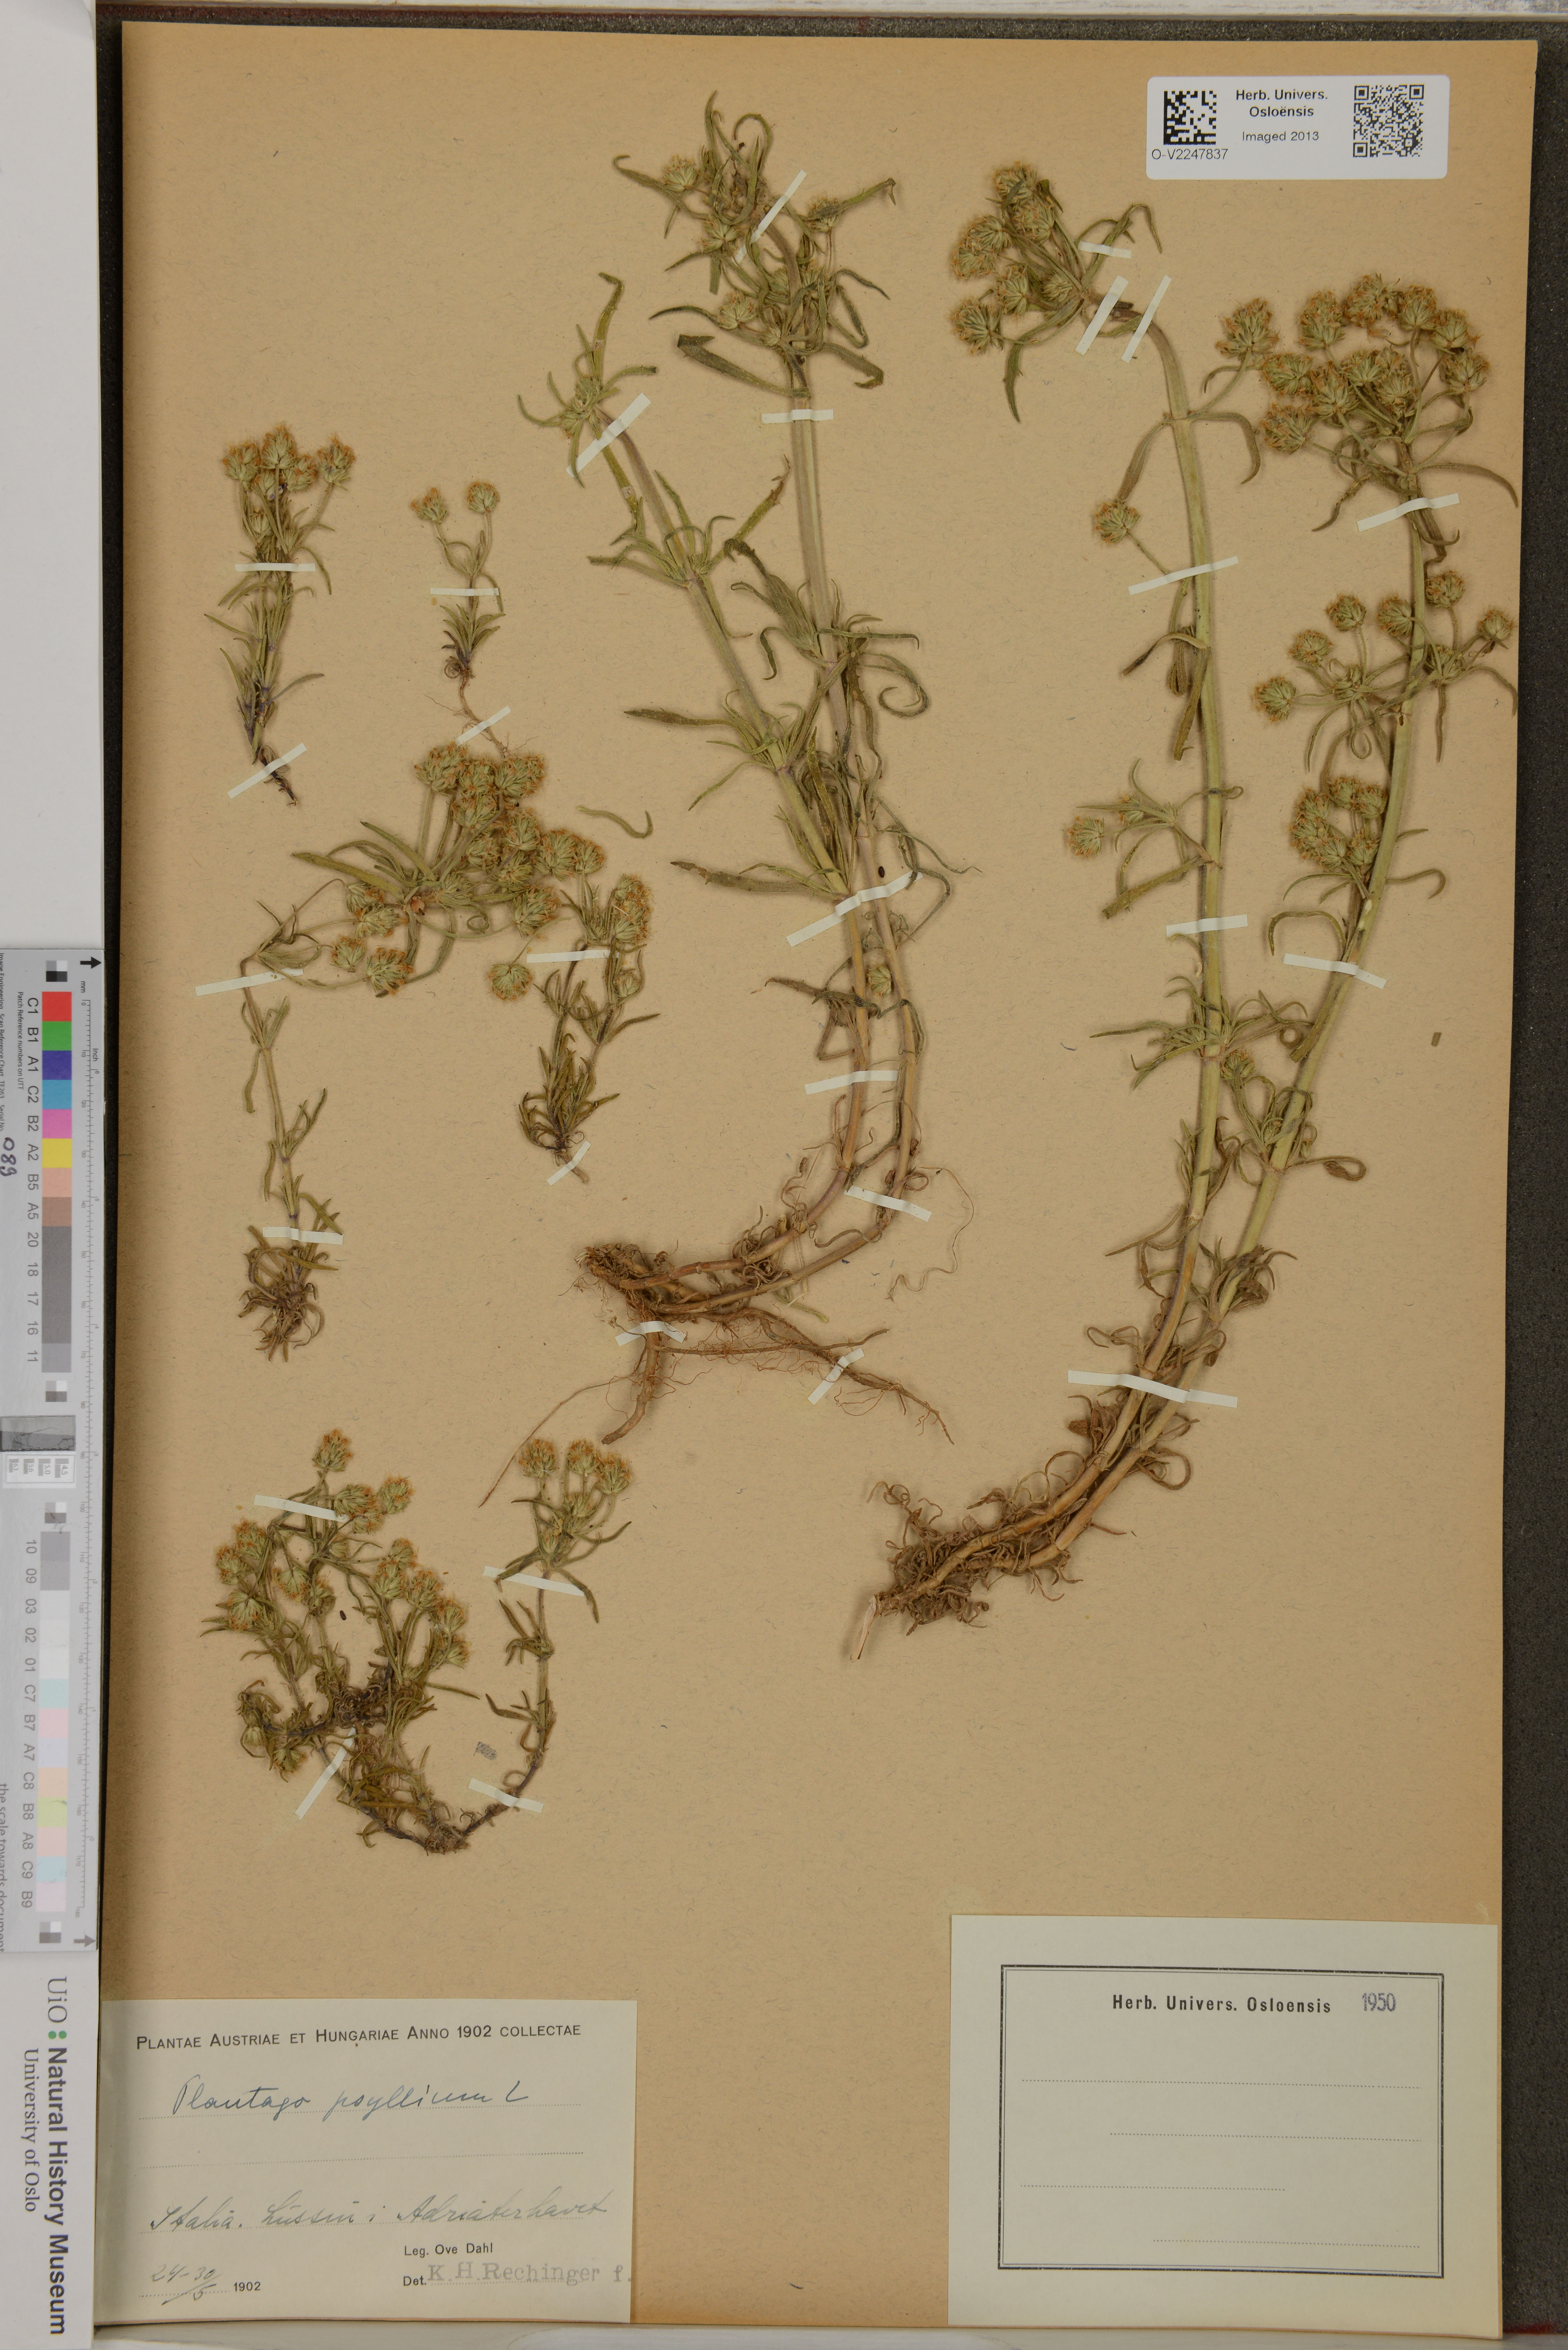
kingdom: Plantae
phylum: Tracheophyta
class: Magnoliopsida
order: Lamiales
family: Plantaginaceae
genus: Plantago
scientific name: Plantago psyllium
